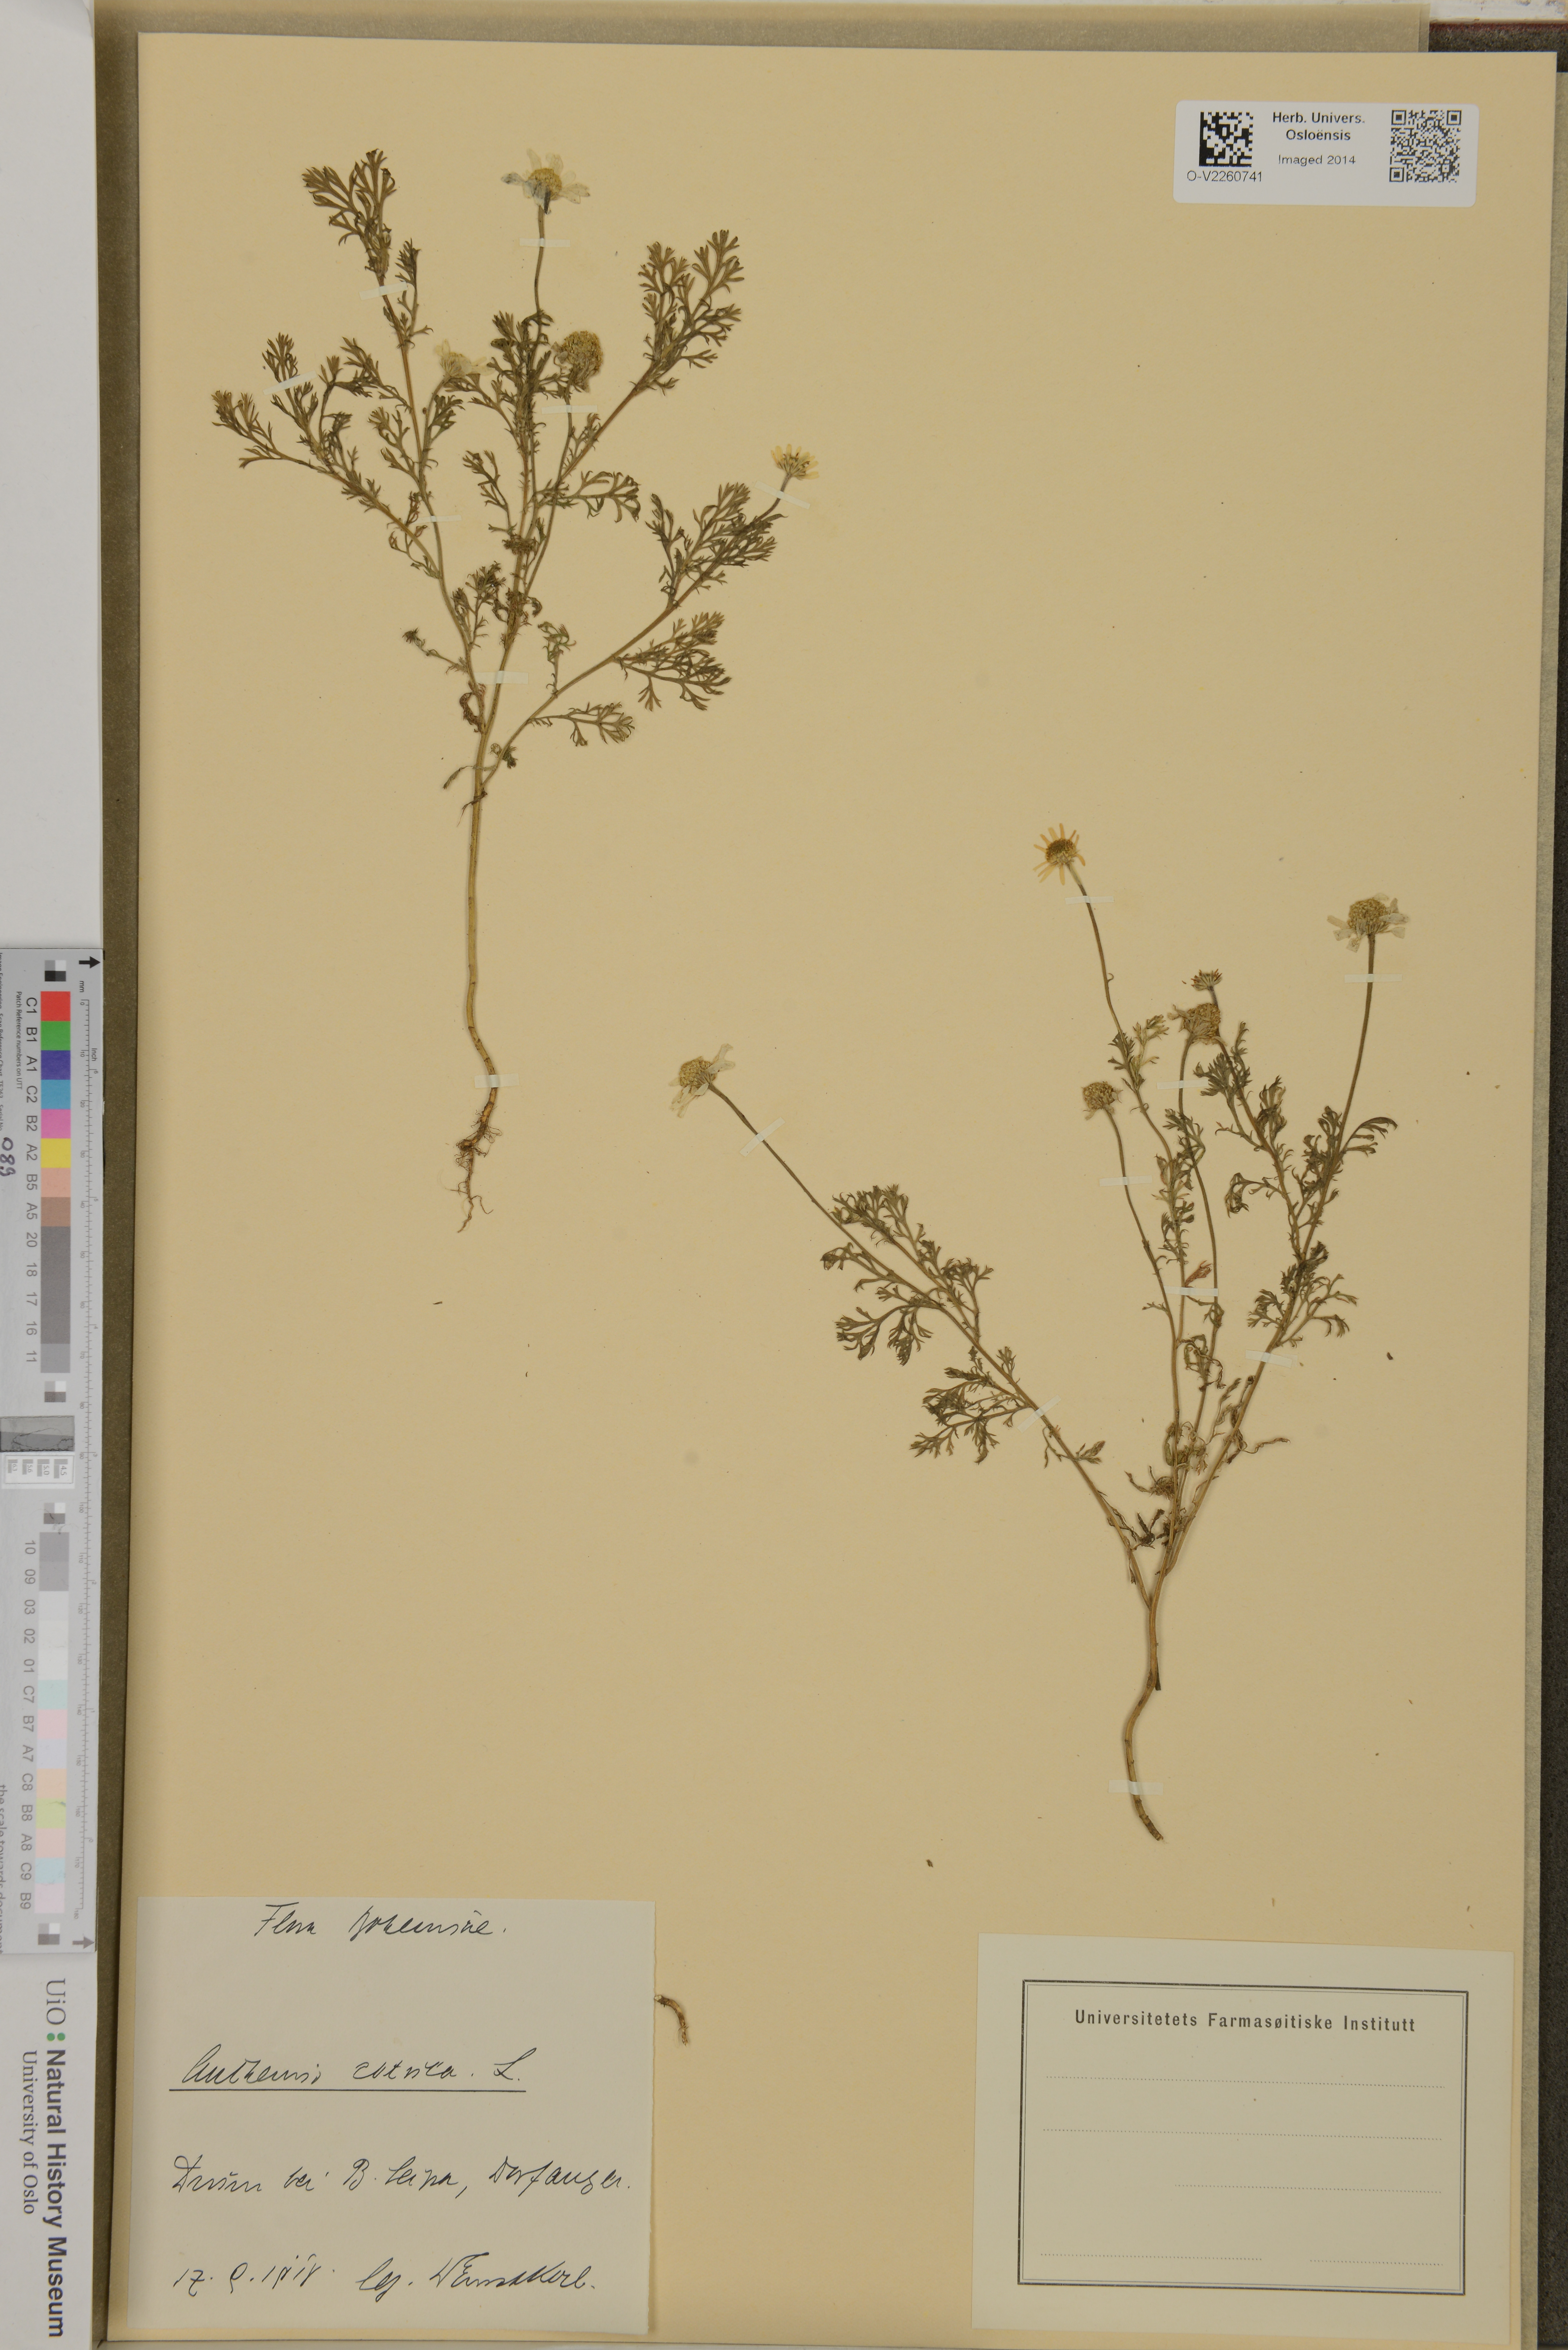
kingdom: Plantae
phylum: Tracheophyta
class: Magnoliopsida
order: Asterales
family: Asteraceae
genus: Anthemis
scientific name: Anthemis cotula
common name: Stinking chamomile
